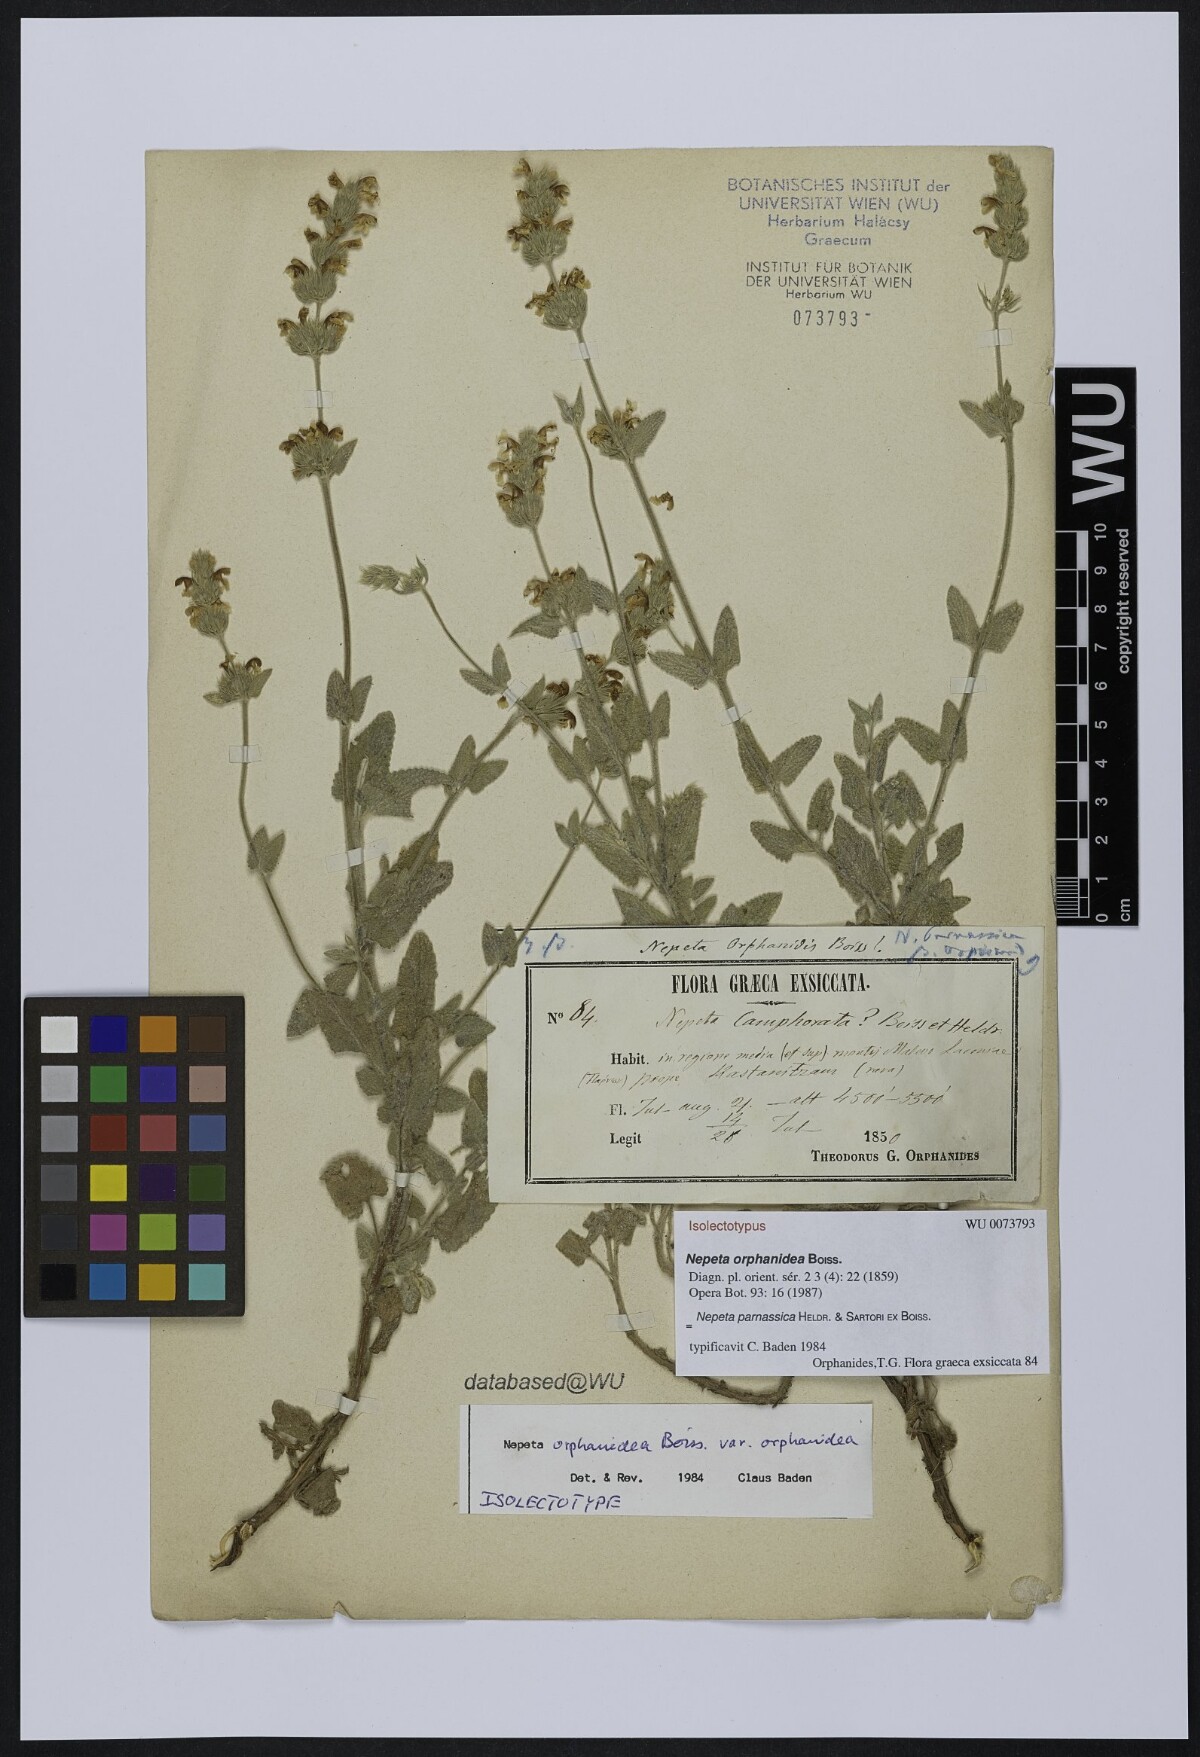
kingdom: Plantae
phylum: Tracheophyta
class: Magnoliopsida
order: Lamiales
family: Lamiaceae
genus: Nepeta
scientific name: Nepeta orphanidea
